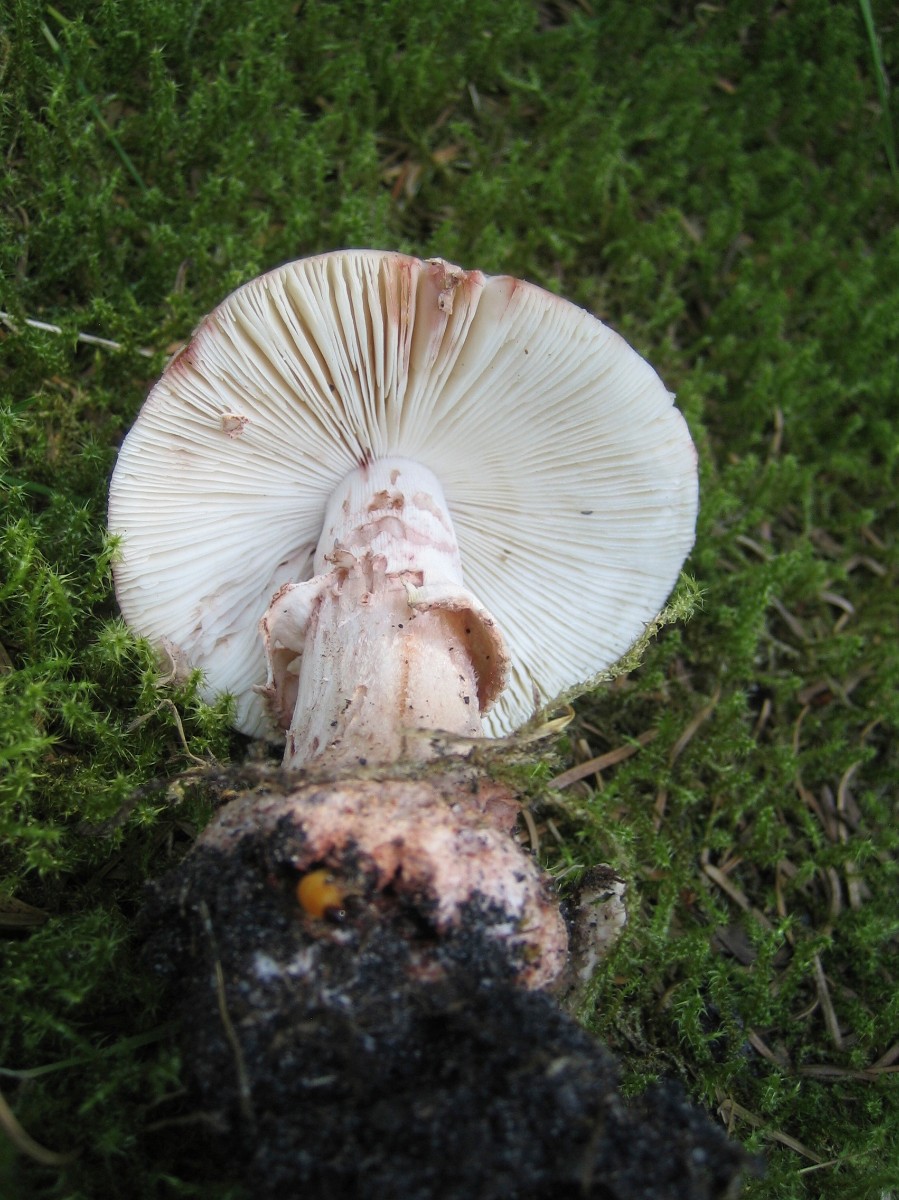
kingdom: Fungi
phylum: Basidiomycota
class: Agaricomycetes
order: Agaricales
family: Amanitaceae
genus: Amanita
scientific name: Amanita rubescens
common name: rødmende fluesvamp
